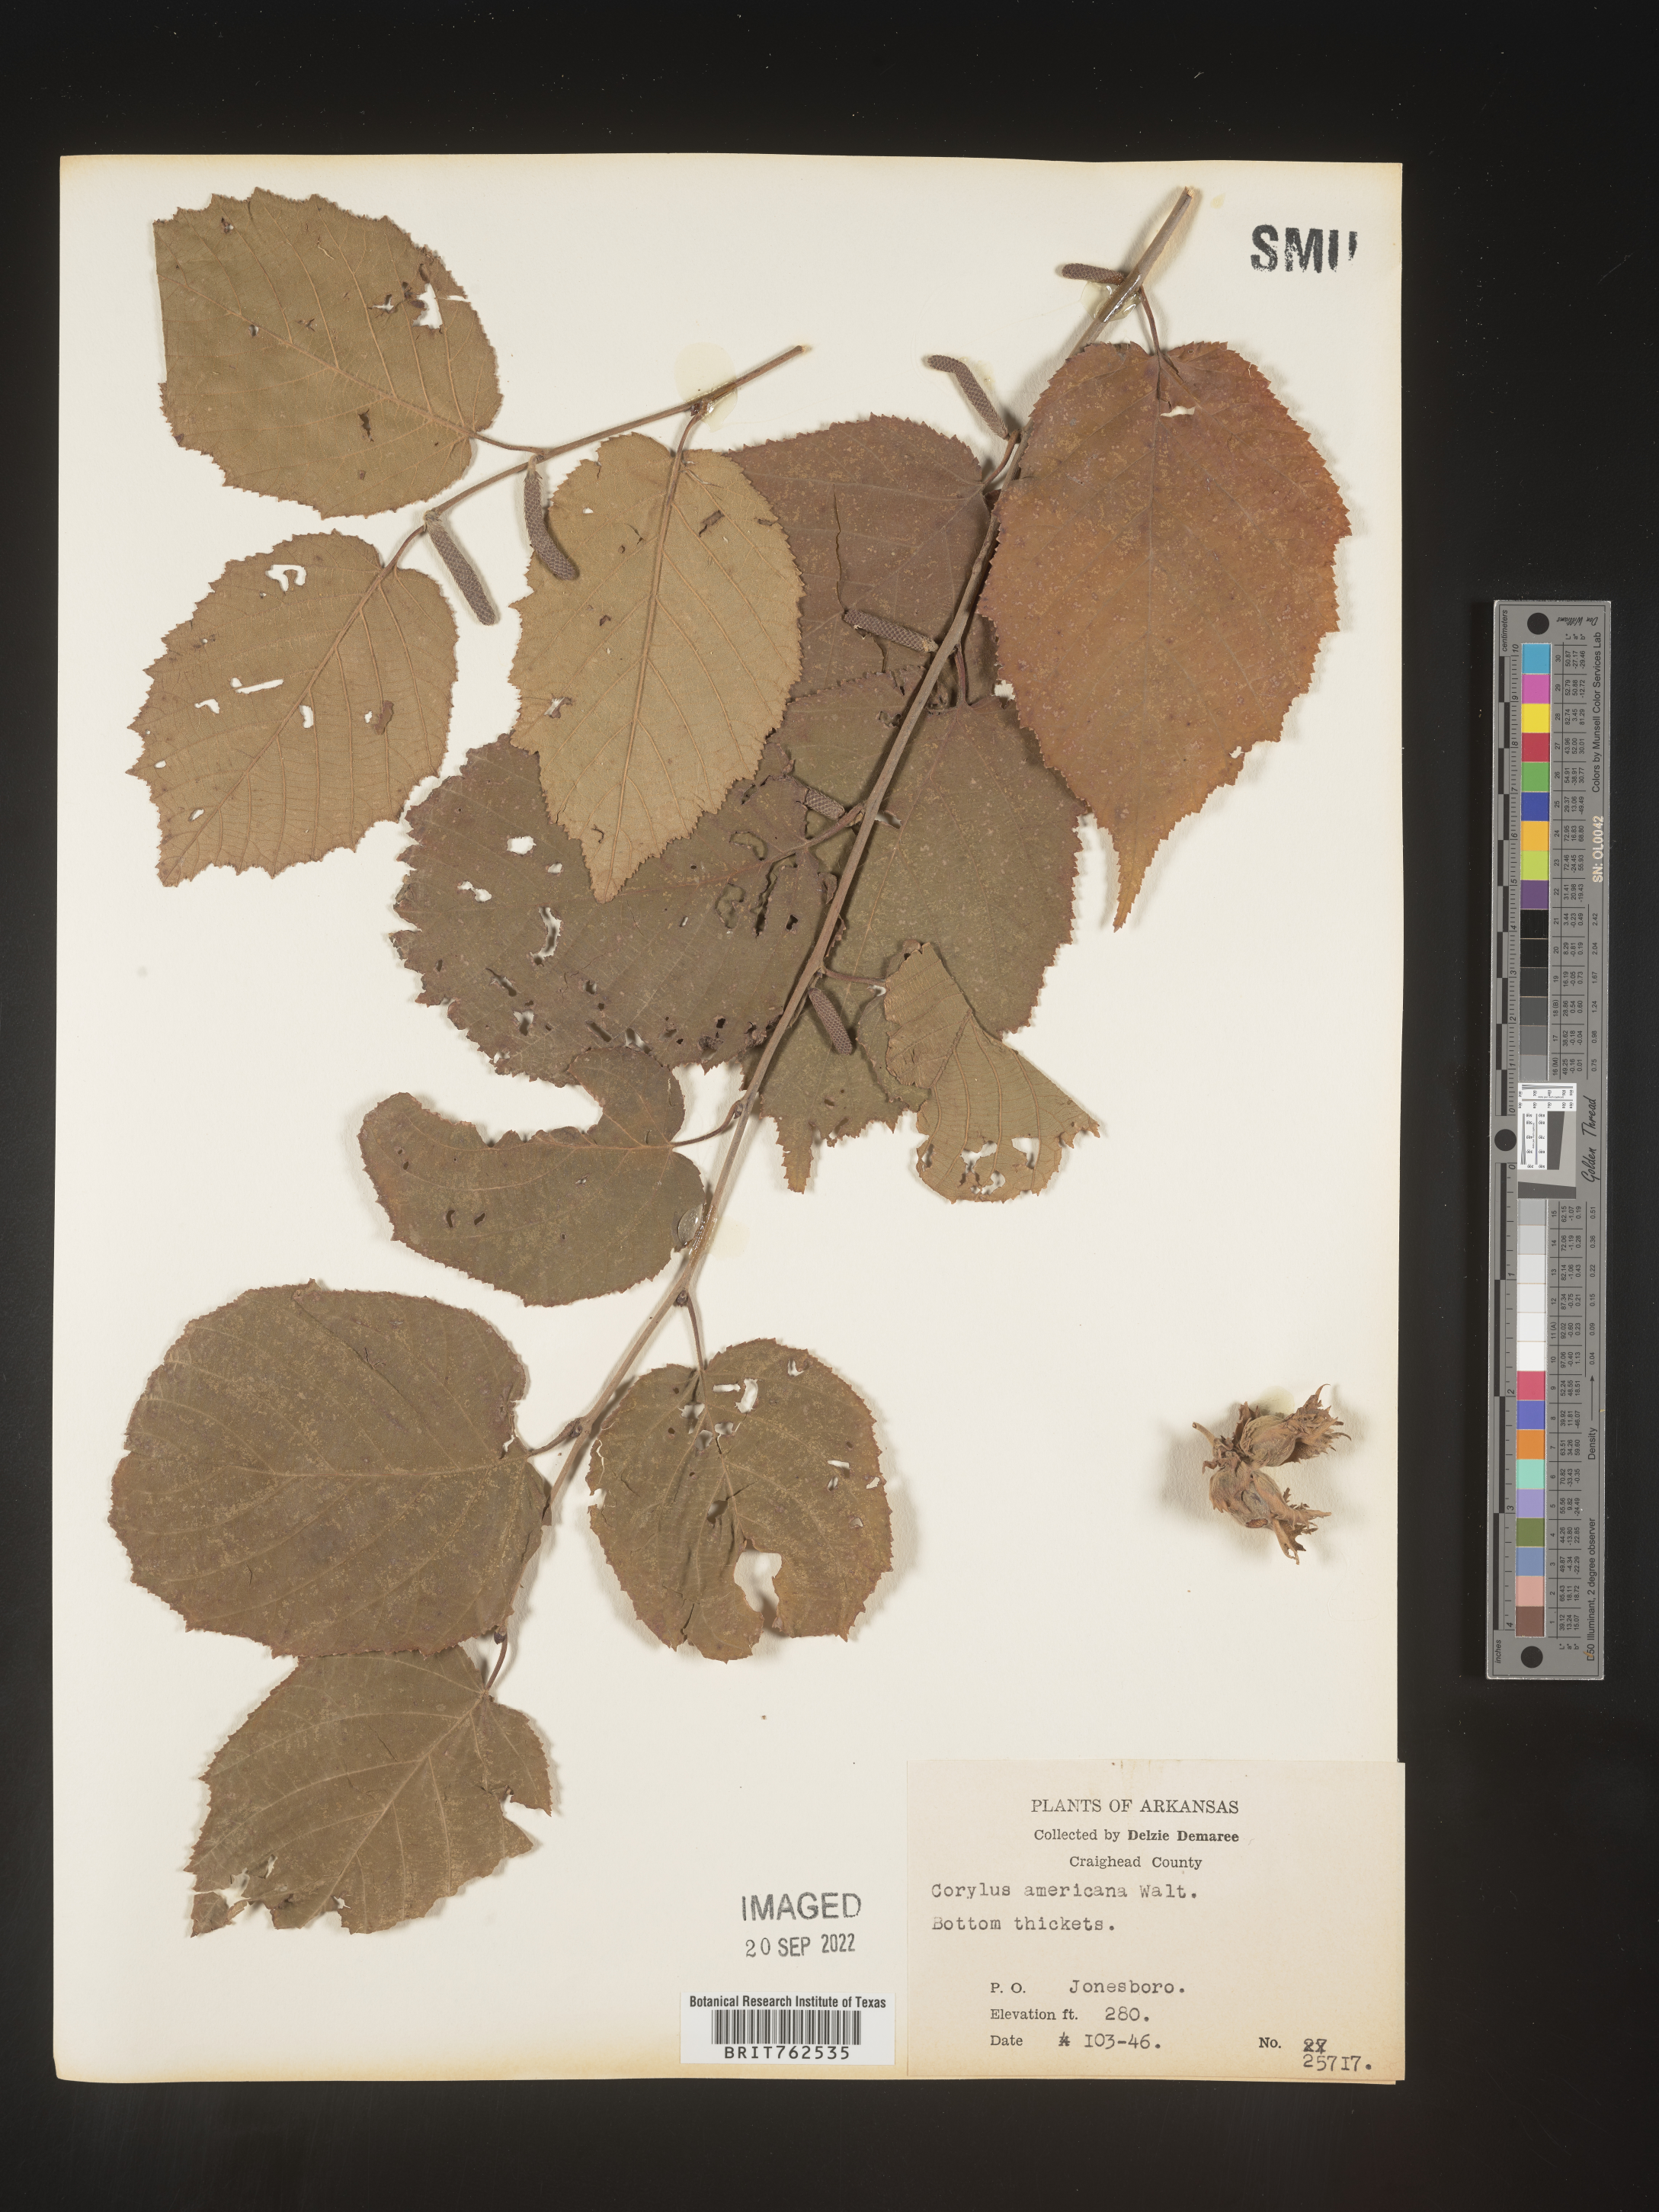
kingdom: Plantae
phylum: Tracheophyta
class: Magnoliopsida
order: Fagales
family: Betulaceae
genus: Corylus
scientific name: Corylus americana
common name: American hazel
